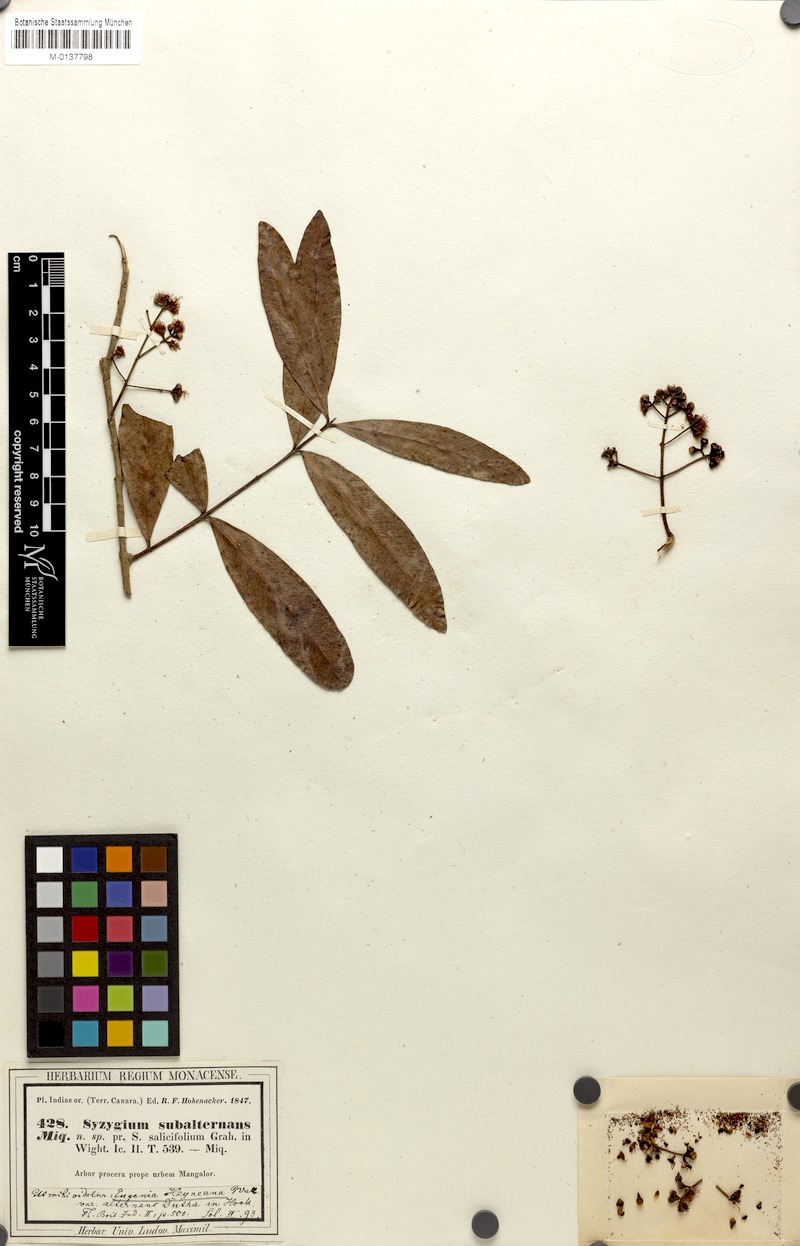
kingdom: Plantae
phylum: Tracheophyta
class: Magnoliopsida
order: Myrtales
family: Myrtaceae
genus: Syzygium
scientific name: Syzygium salicifolium
